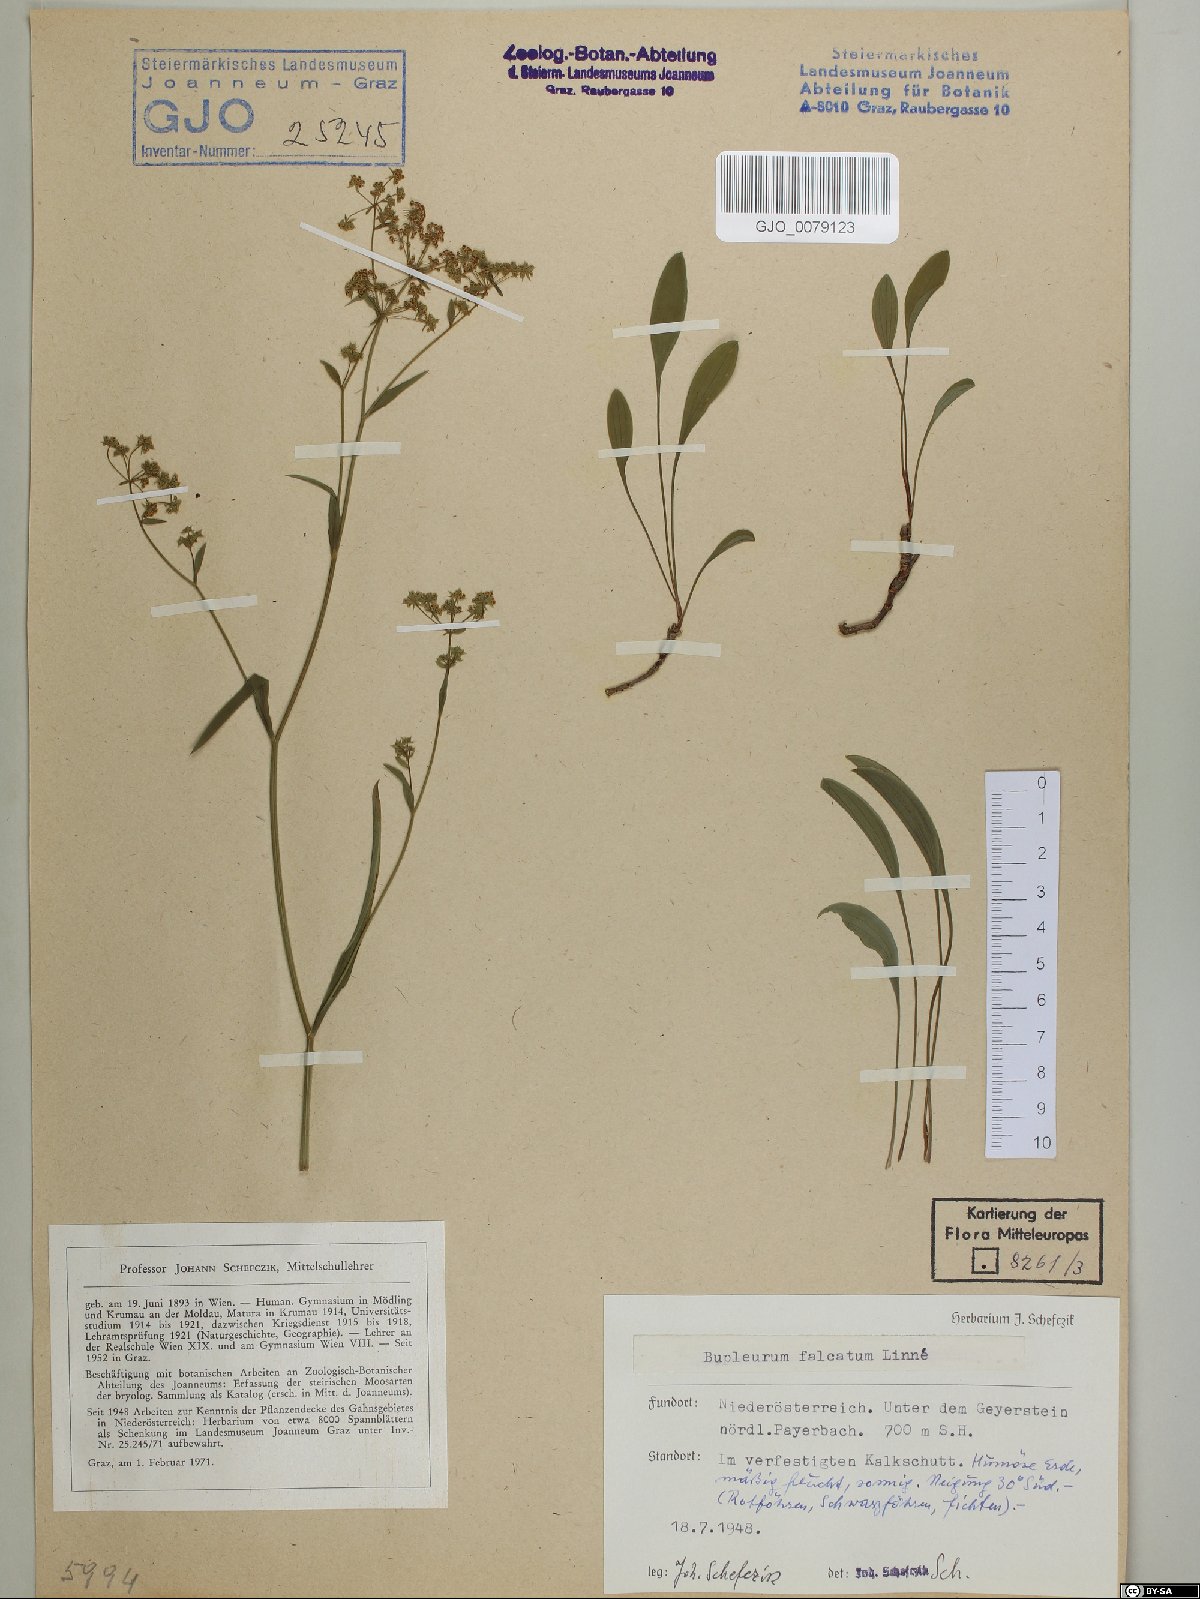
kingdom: Plantae
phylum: Tracheophyta
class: Magnoliopsida
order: Apiales
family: Apiaceae
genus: Bupleurum
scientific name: Bupleurum falcatum
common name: Sickle-leaved hare's-ear
